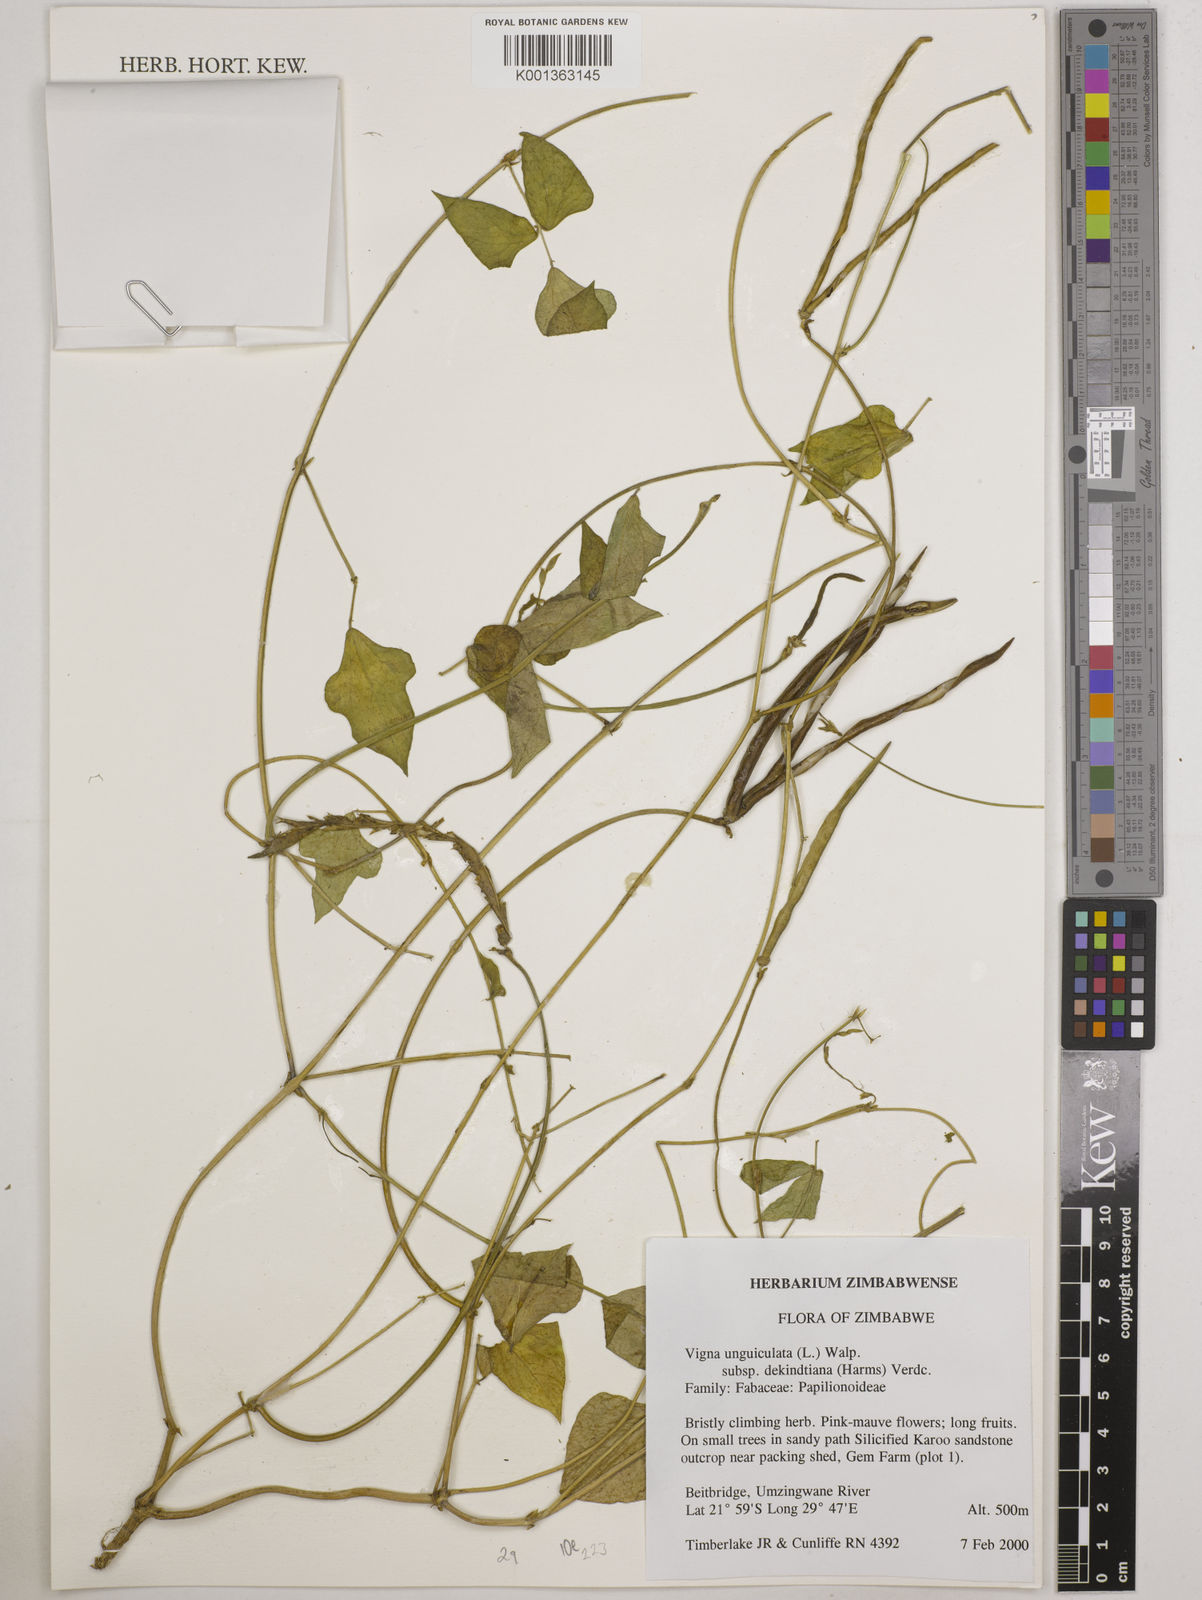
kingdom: Plantae
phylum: Tracheophyta
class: Magnoliopsida
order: Fabales
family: Fabaceae
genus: Vigna
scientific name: Vigna
